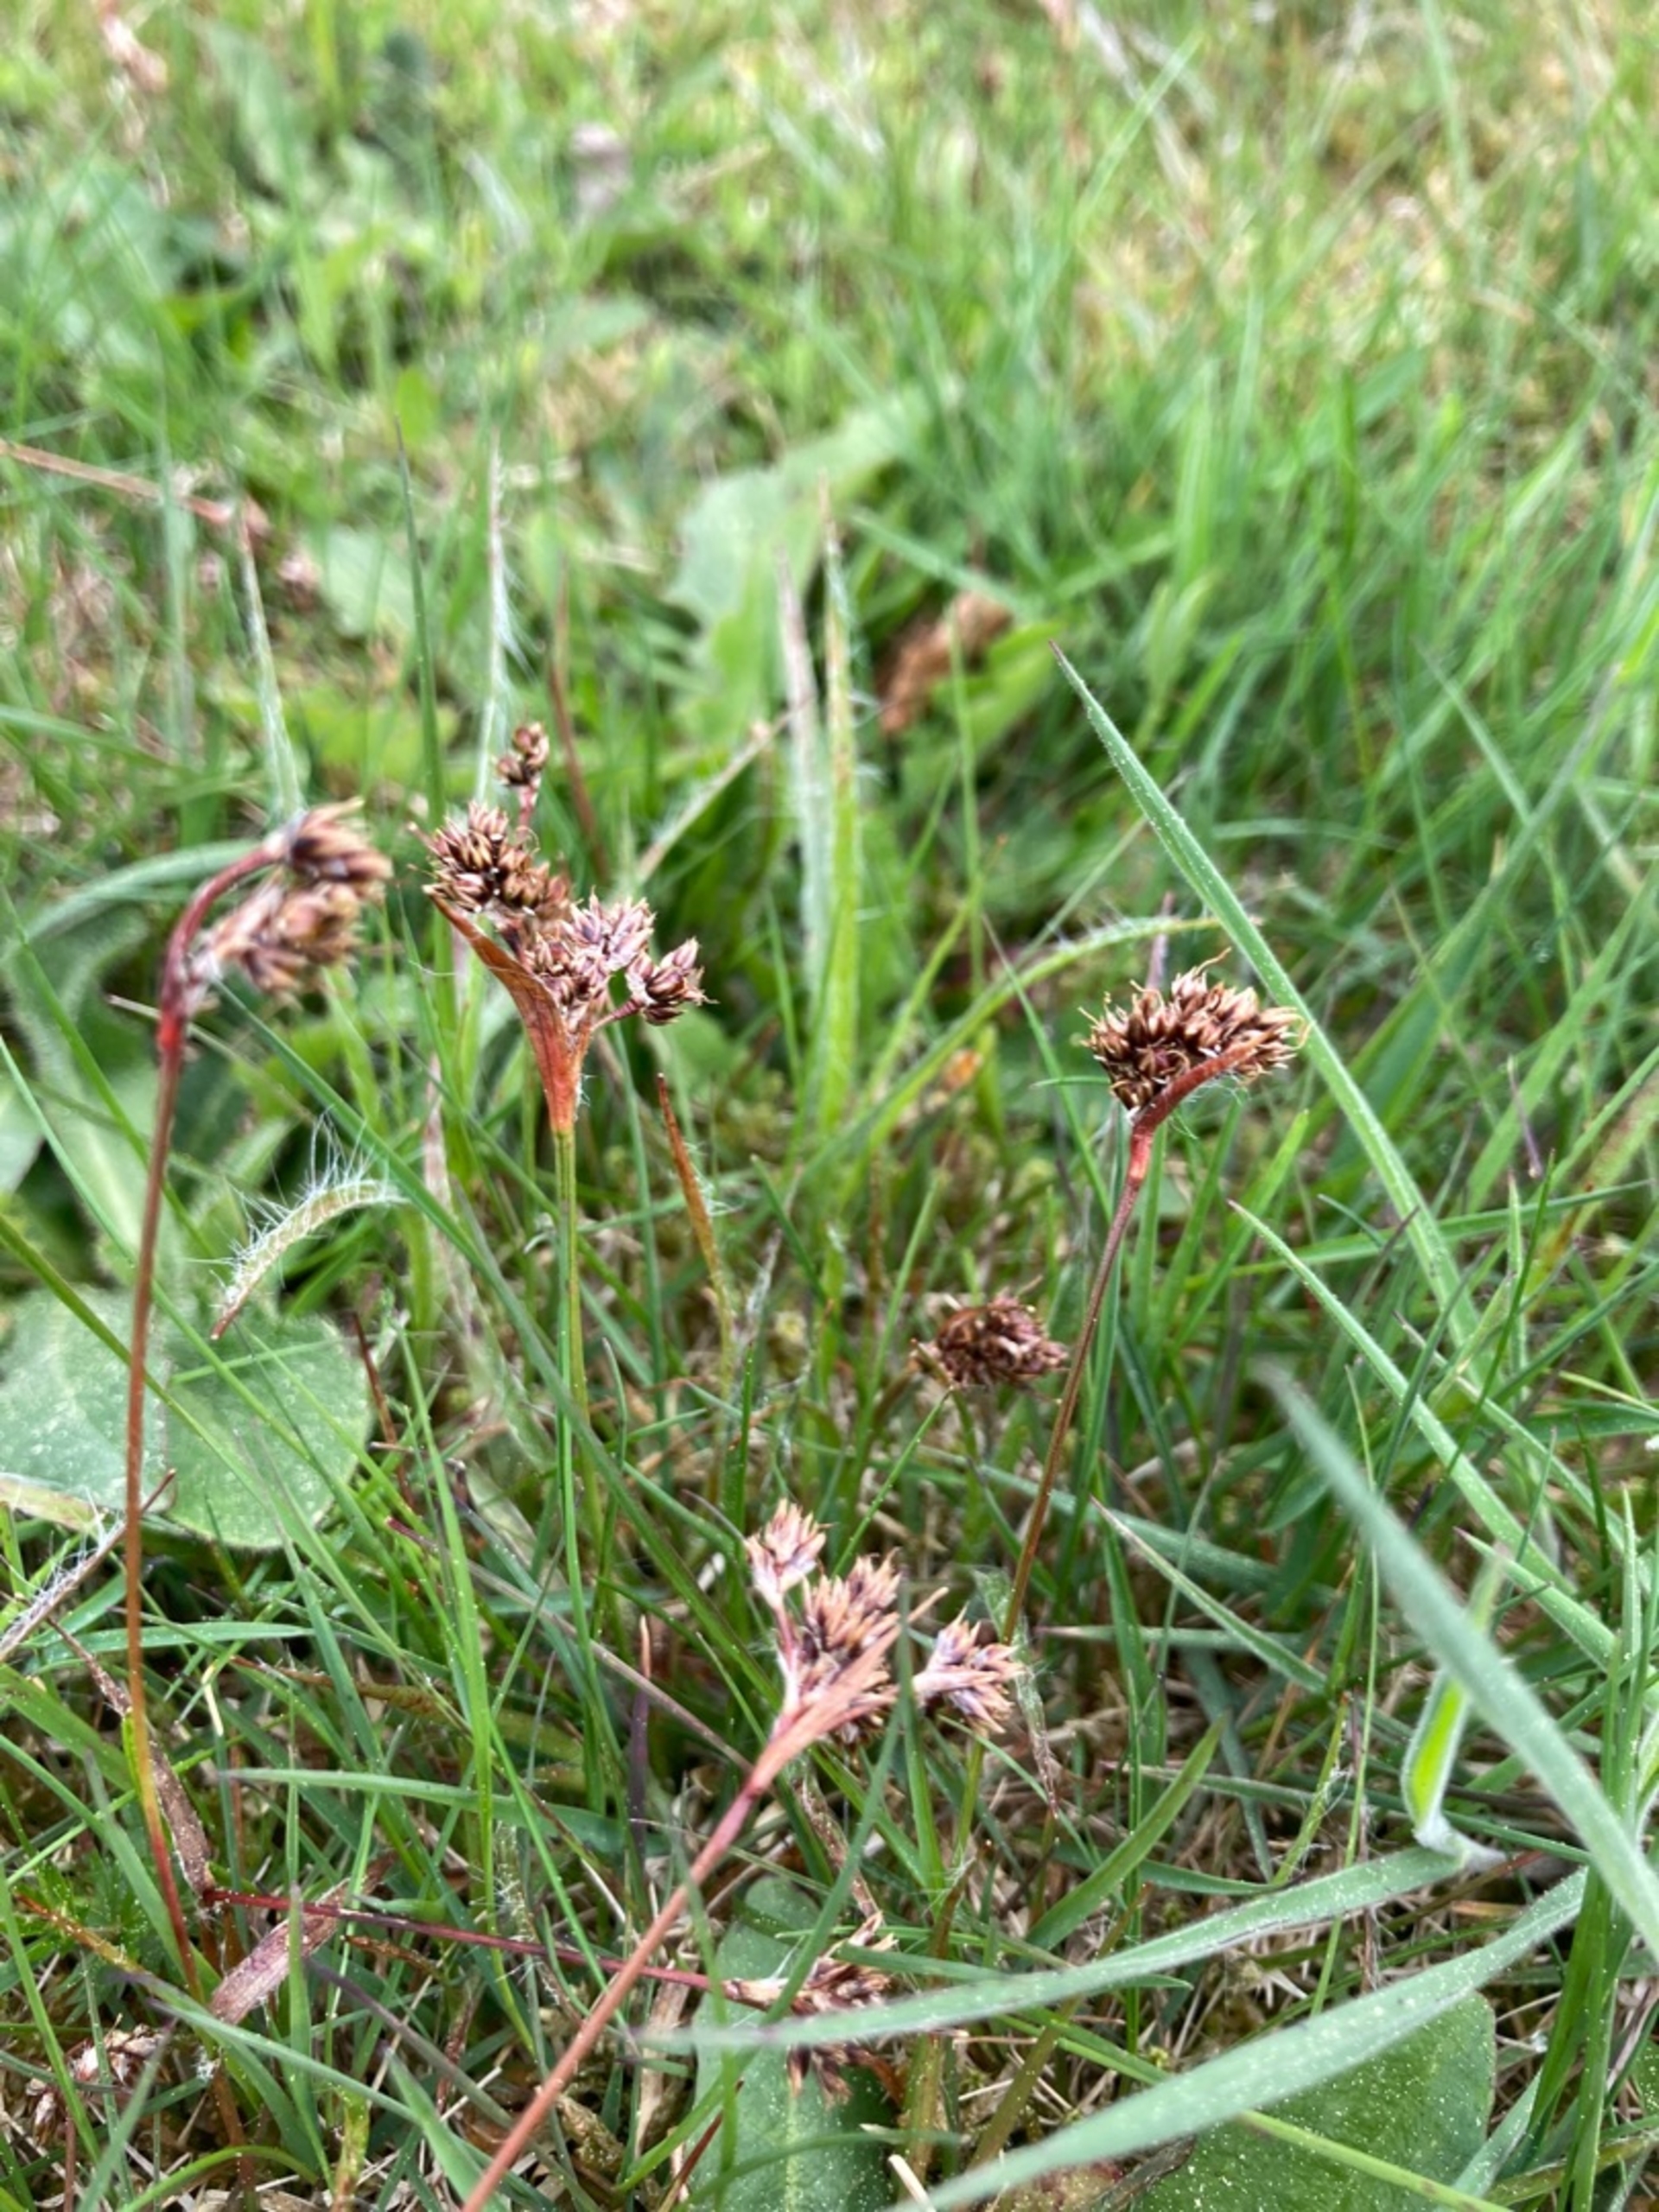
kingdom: Plantae
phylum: Tracheophyta
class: Liliopsida
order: Poales
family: Juncaceae
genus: Luzula
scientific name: Luzula campestris
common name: Mark-frytle
